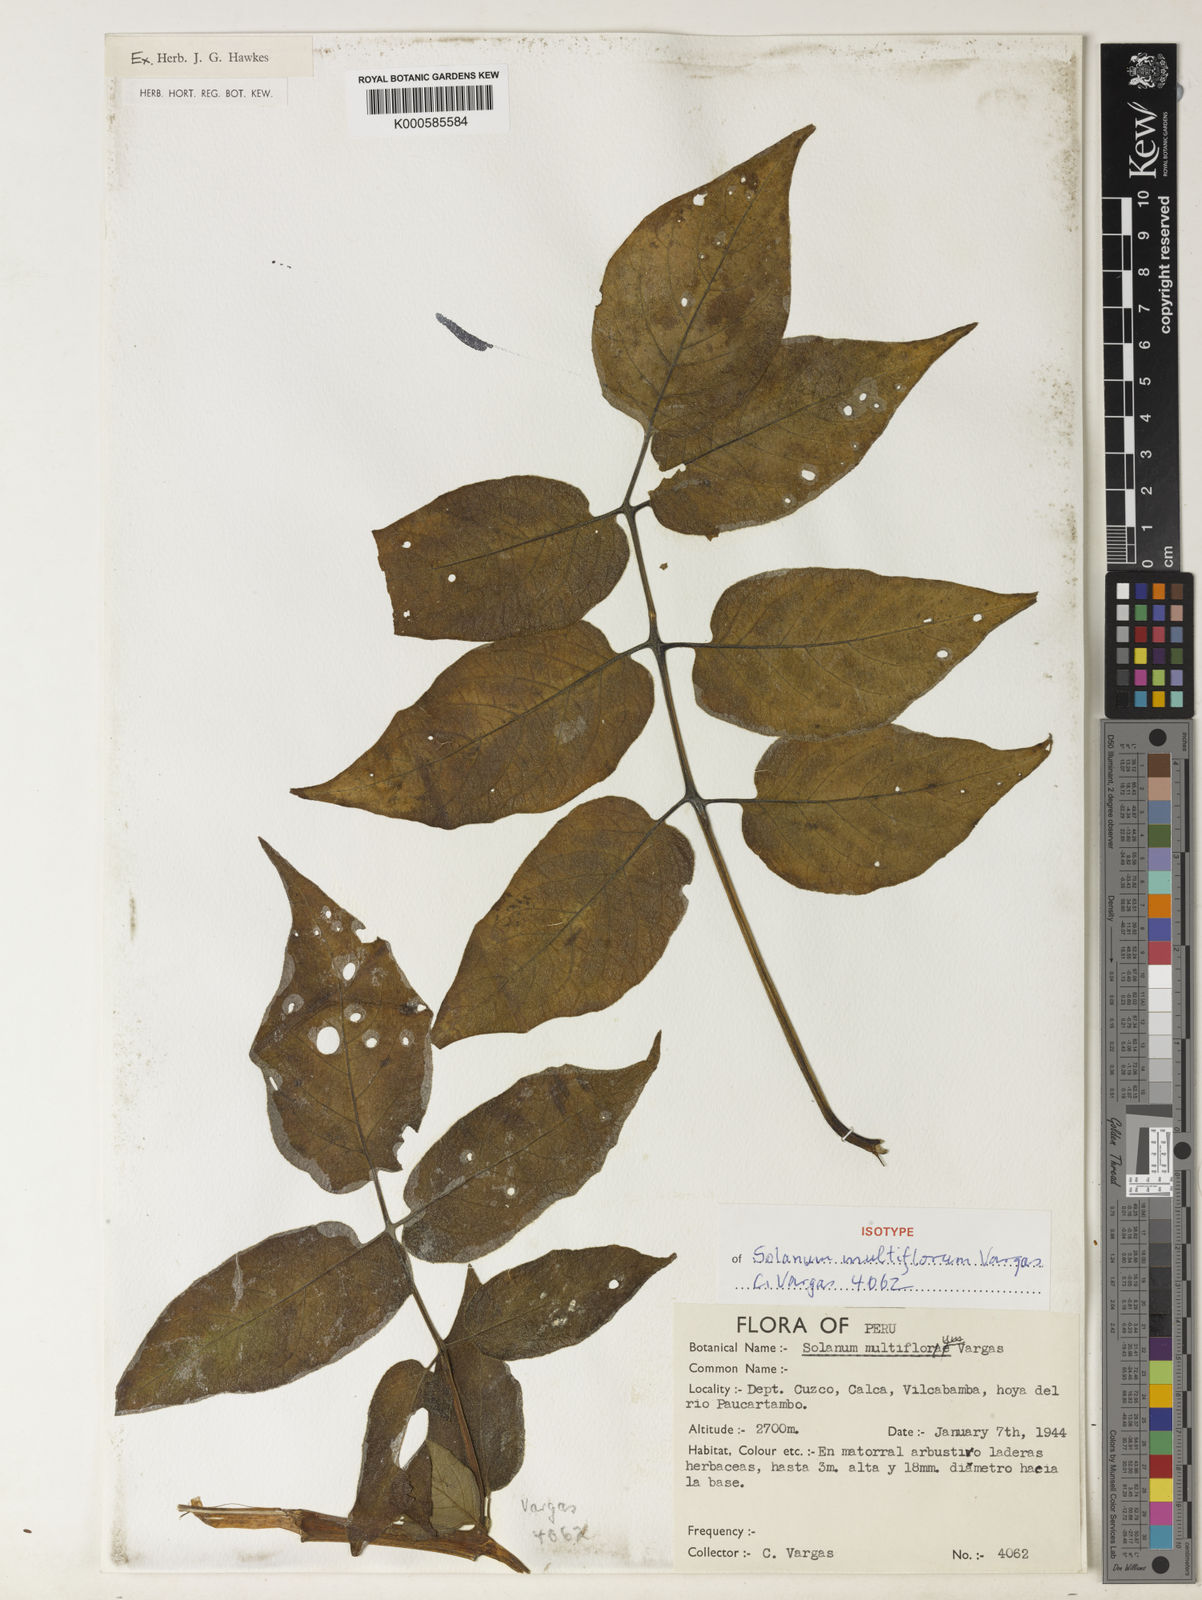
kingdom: Plantae
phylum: Tracheophyta
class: Magnoliopsida
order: Solanales
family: Solanaceae
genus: Solanum
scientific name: Solanum violaceimarmoratum
